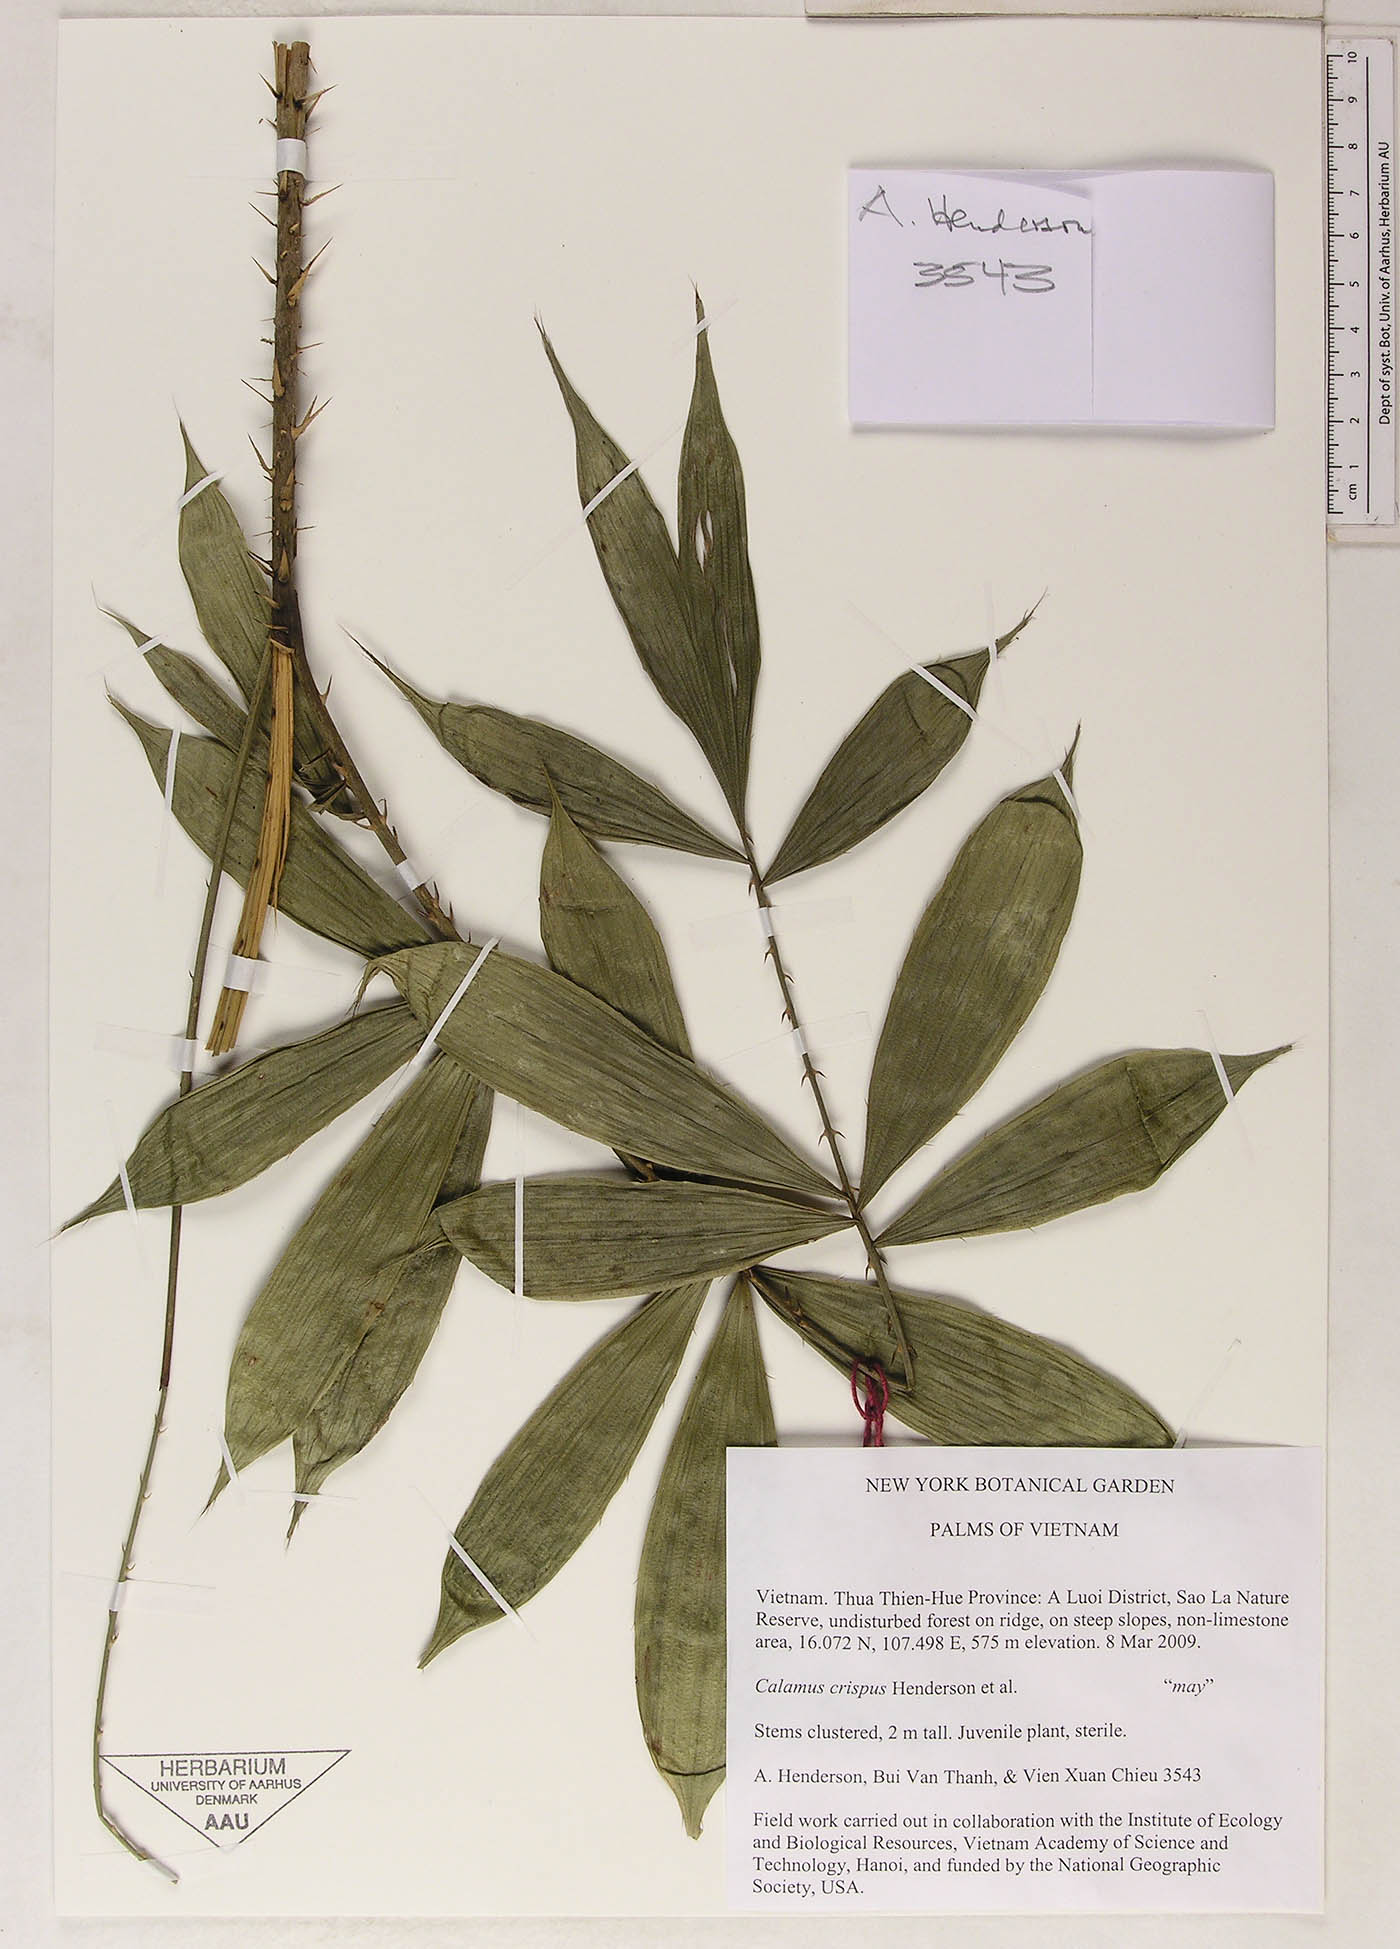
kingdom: Plantae
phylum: Tracheophyta
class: Liliopsida
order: Arecales
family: Arecaceae
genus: Calamus
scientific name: Calamus tetradactylus
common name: White rattan
